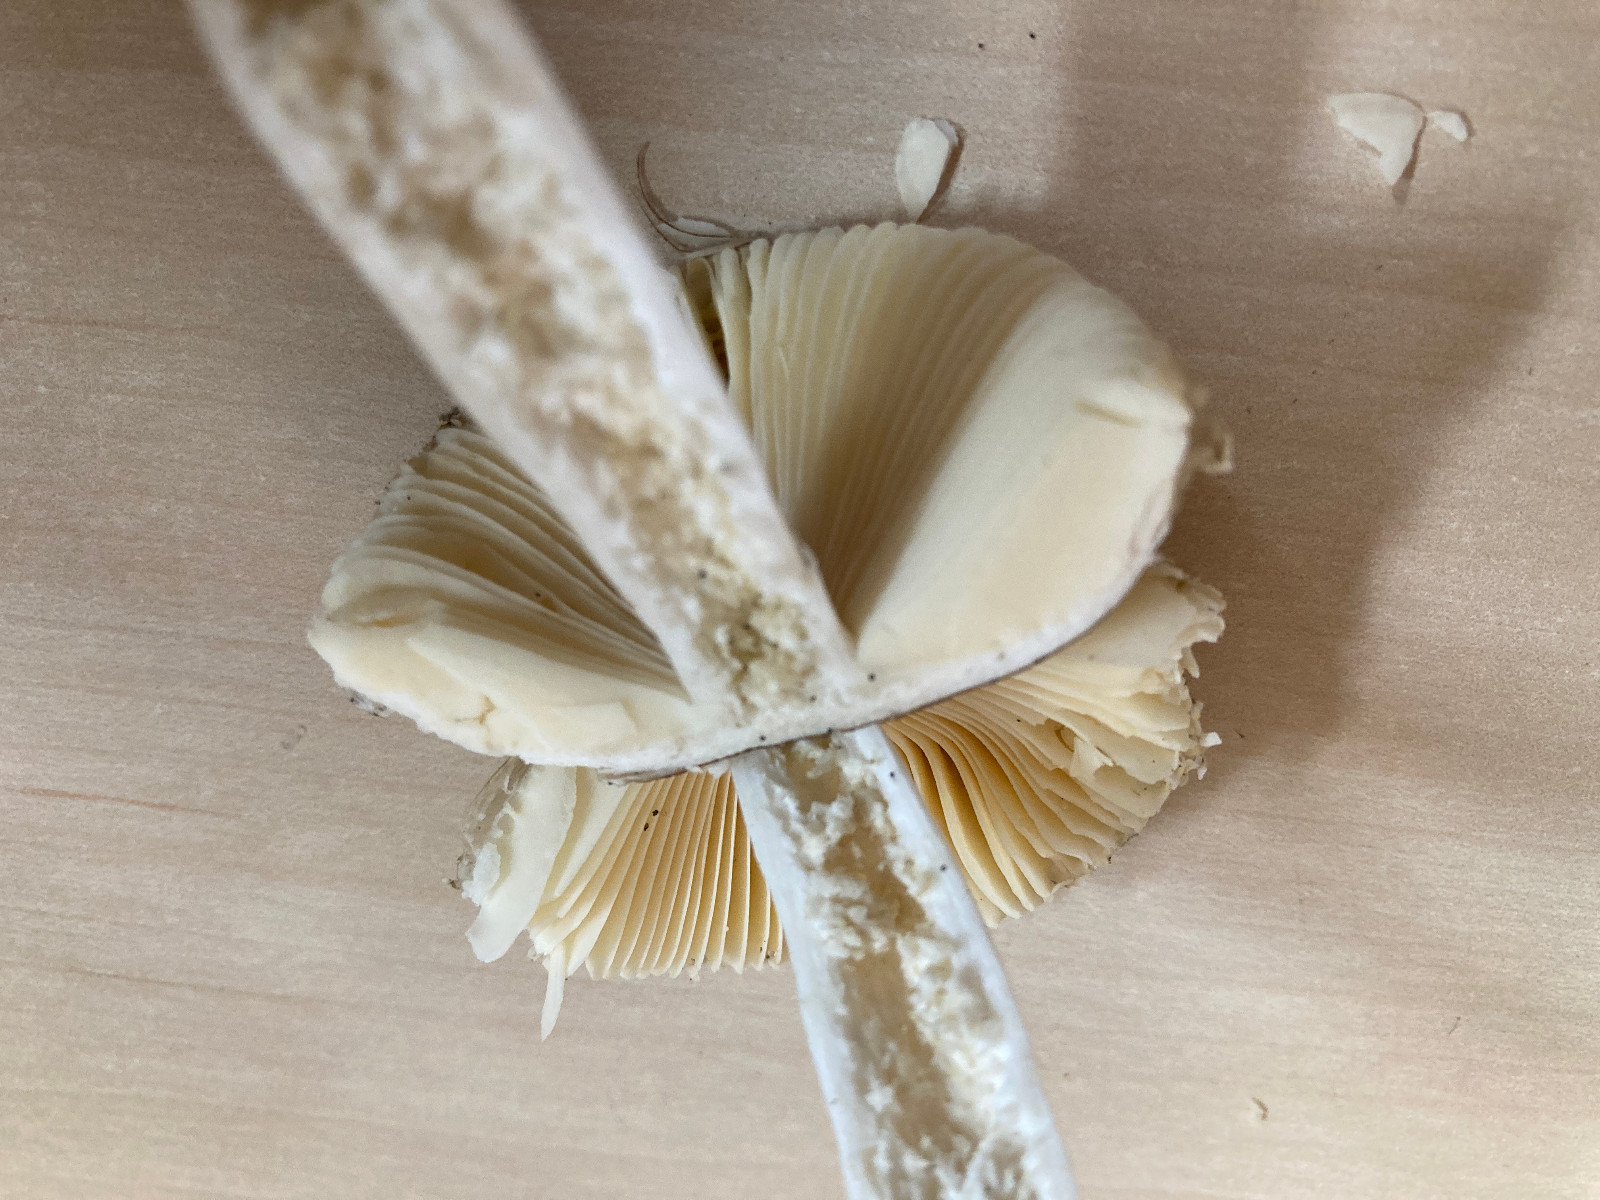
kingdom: Fungi
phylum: Basidiomycota
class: Agaricomycetes
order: Russulales
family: Russulaceae
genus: Russula
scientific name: Russula nauseosa
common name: spinkel skørhat
